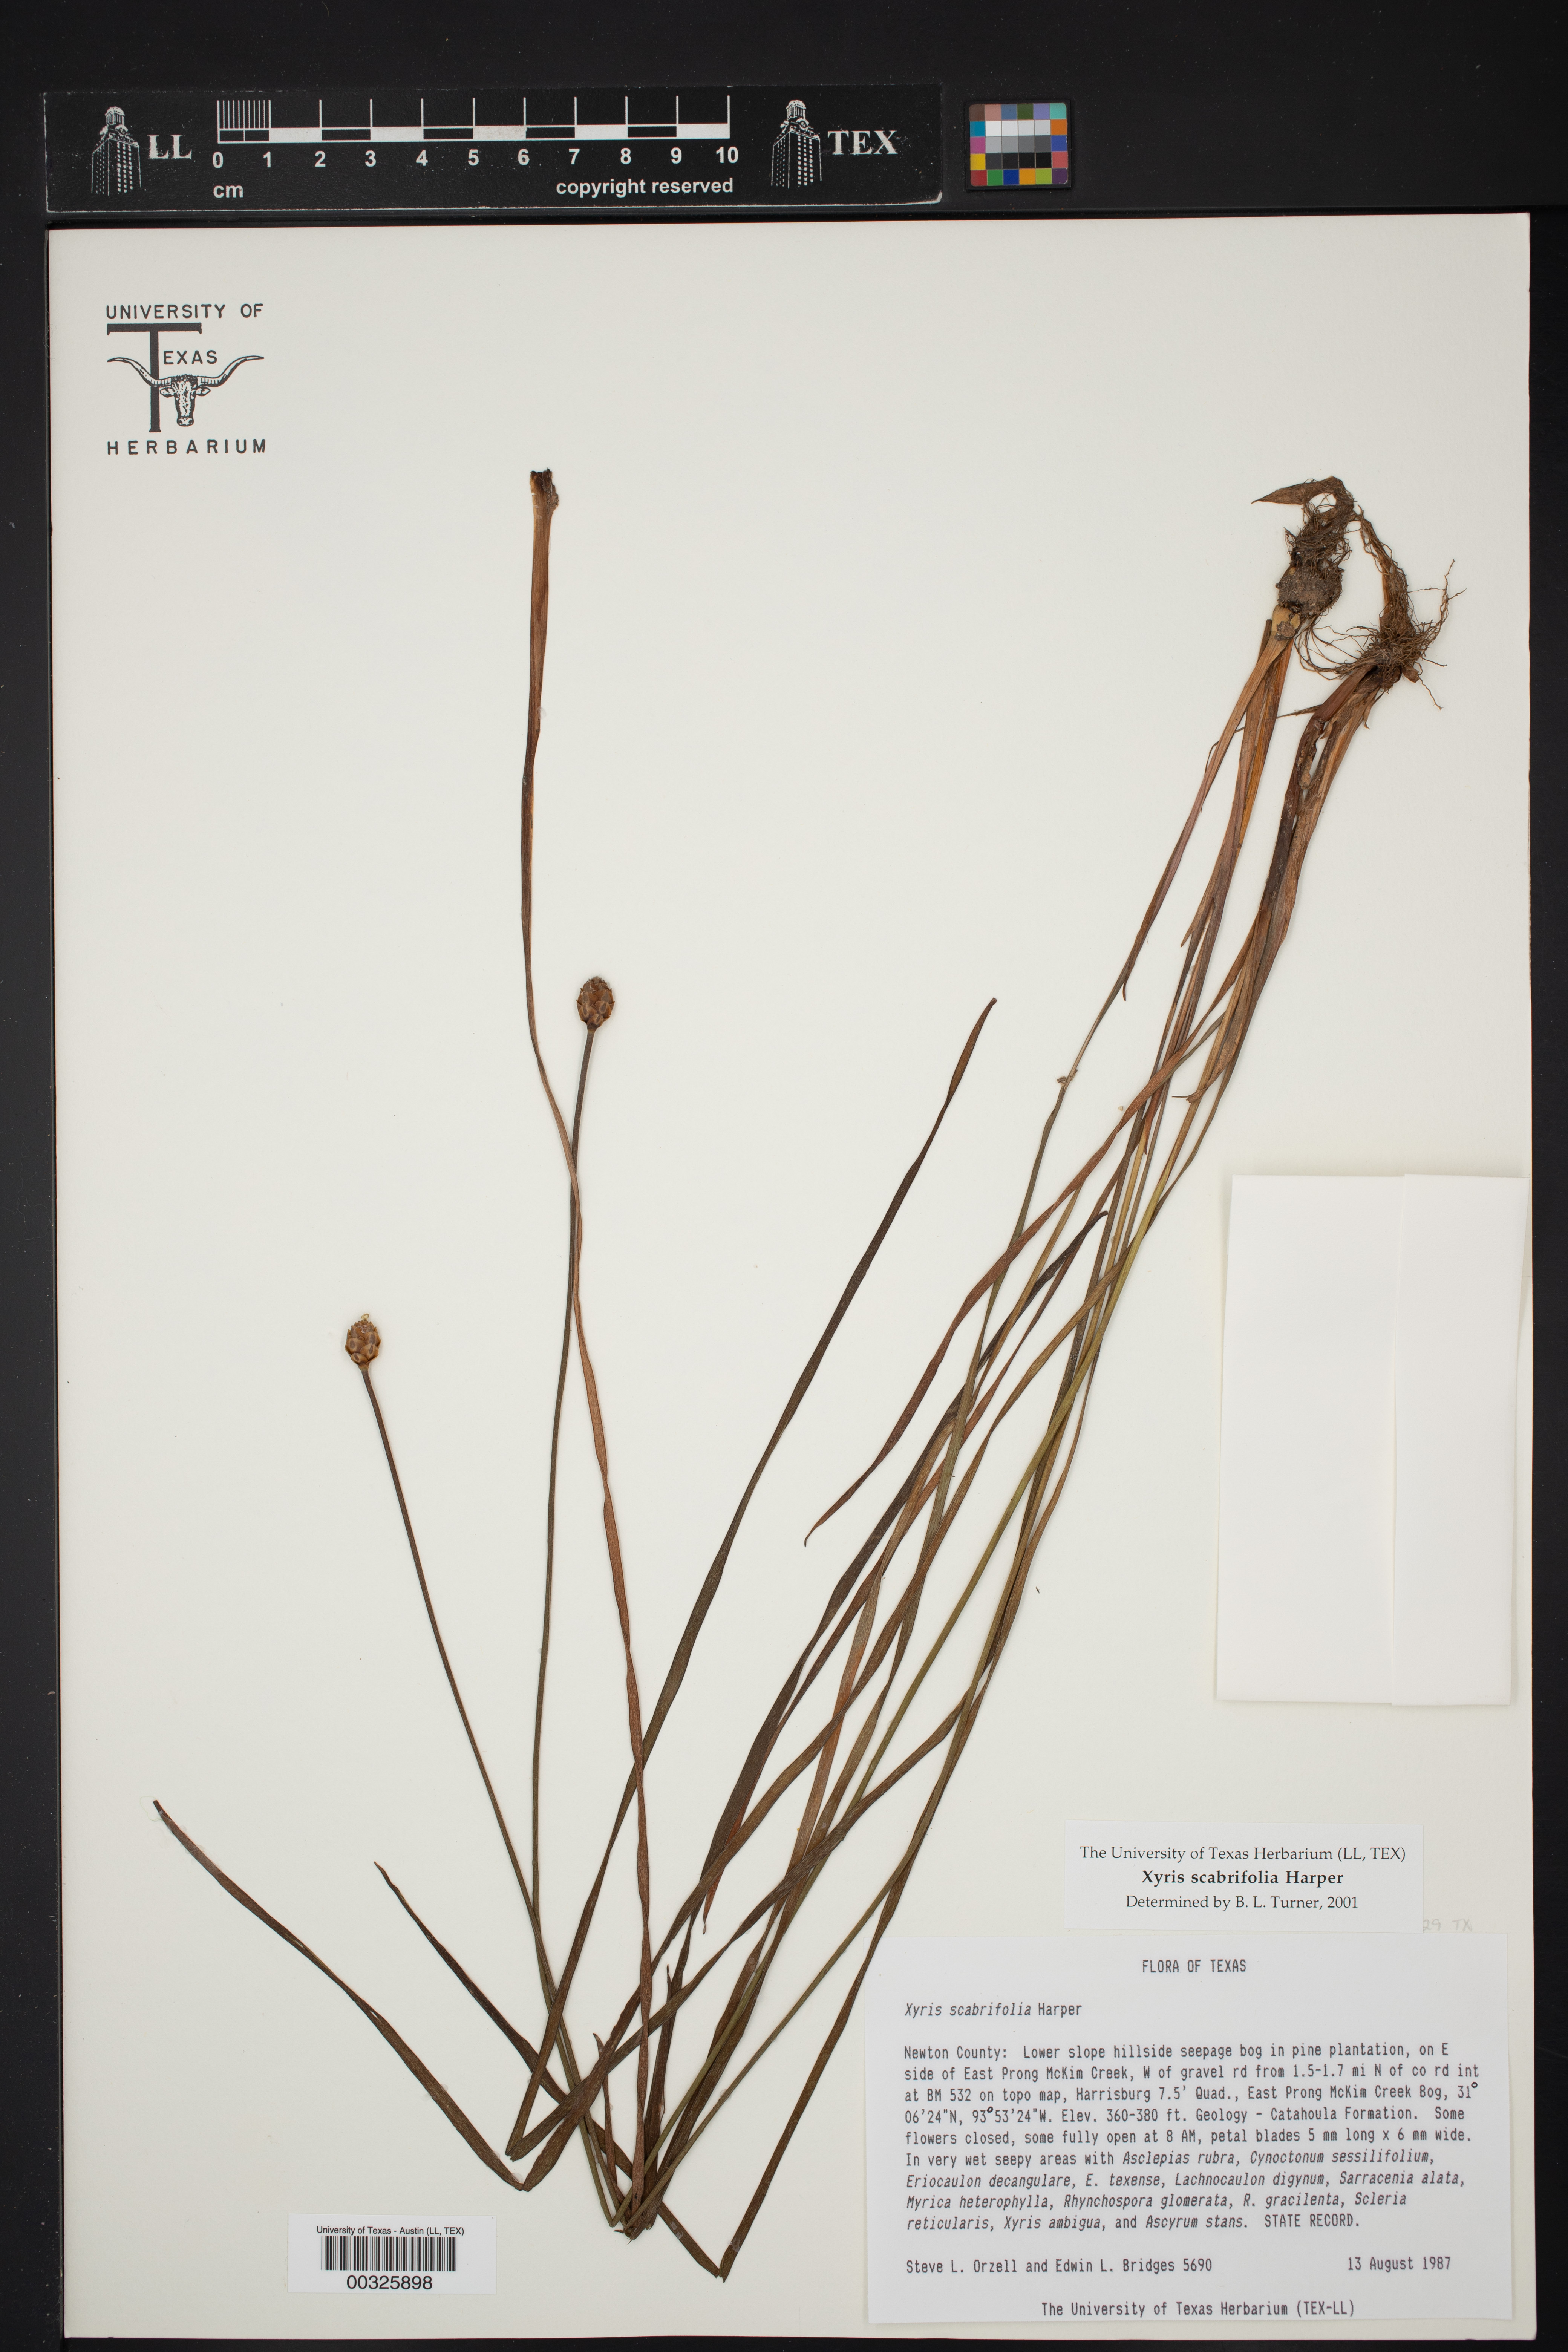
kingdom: Plantae
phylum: Tracheophyta
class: Liliopsida
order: Poales
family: Xyridaceae
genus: Xyris
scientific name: Xyris scabrifolia
